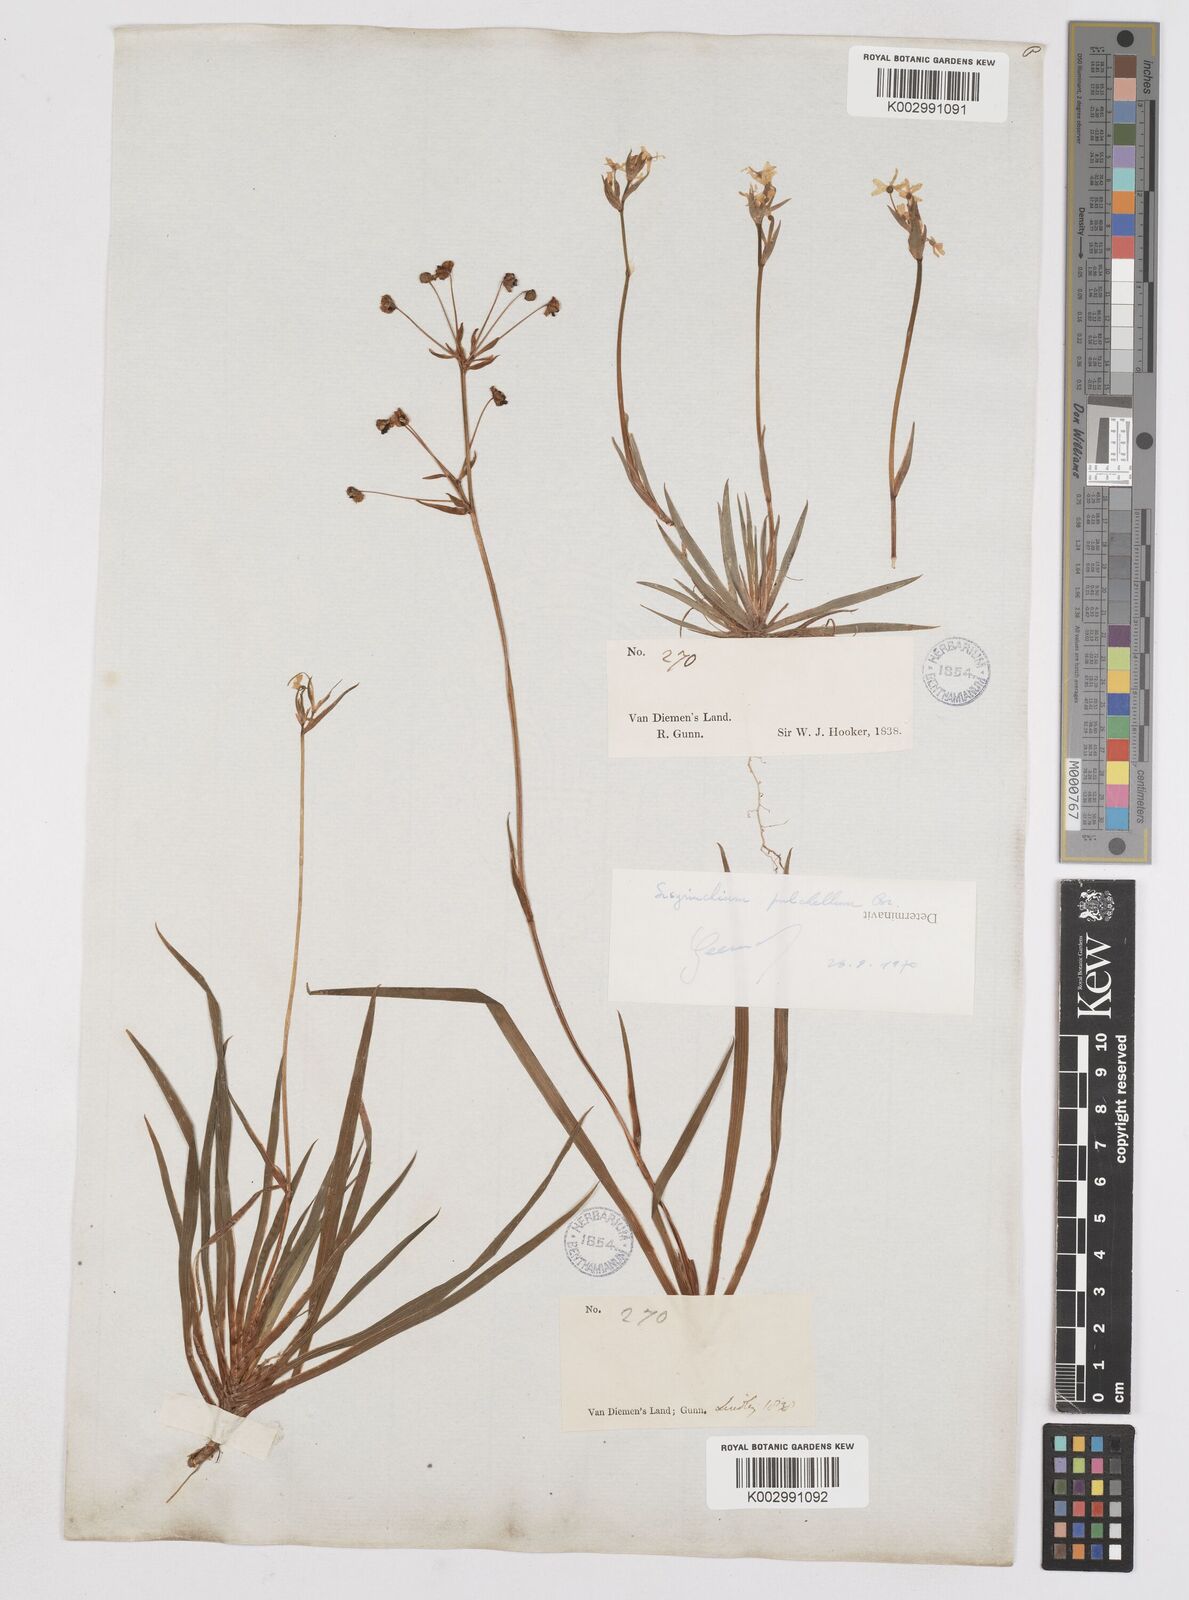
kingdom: Plantae
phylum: Tracheophyta
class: Liliopsida
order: Asparagales
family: Iridaceae
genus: Libertia
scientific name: Libertia pulchella
